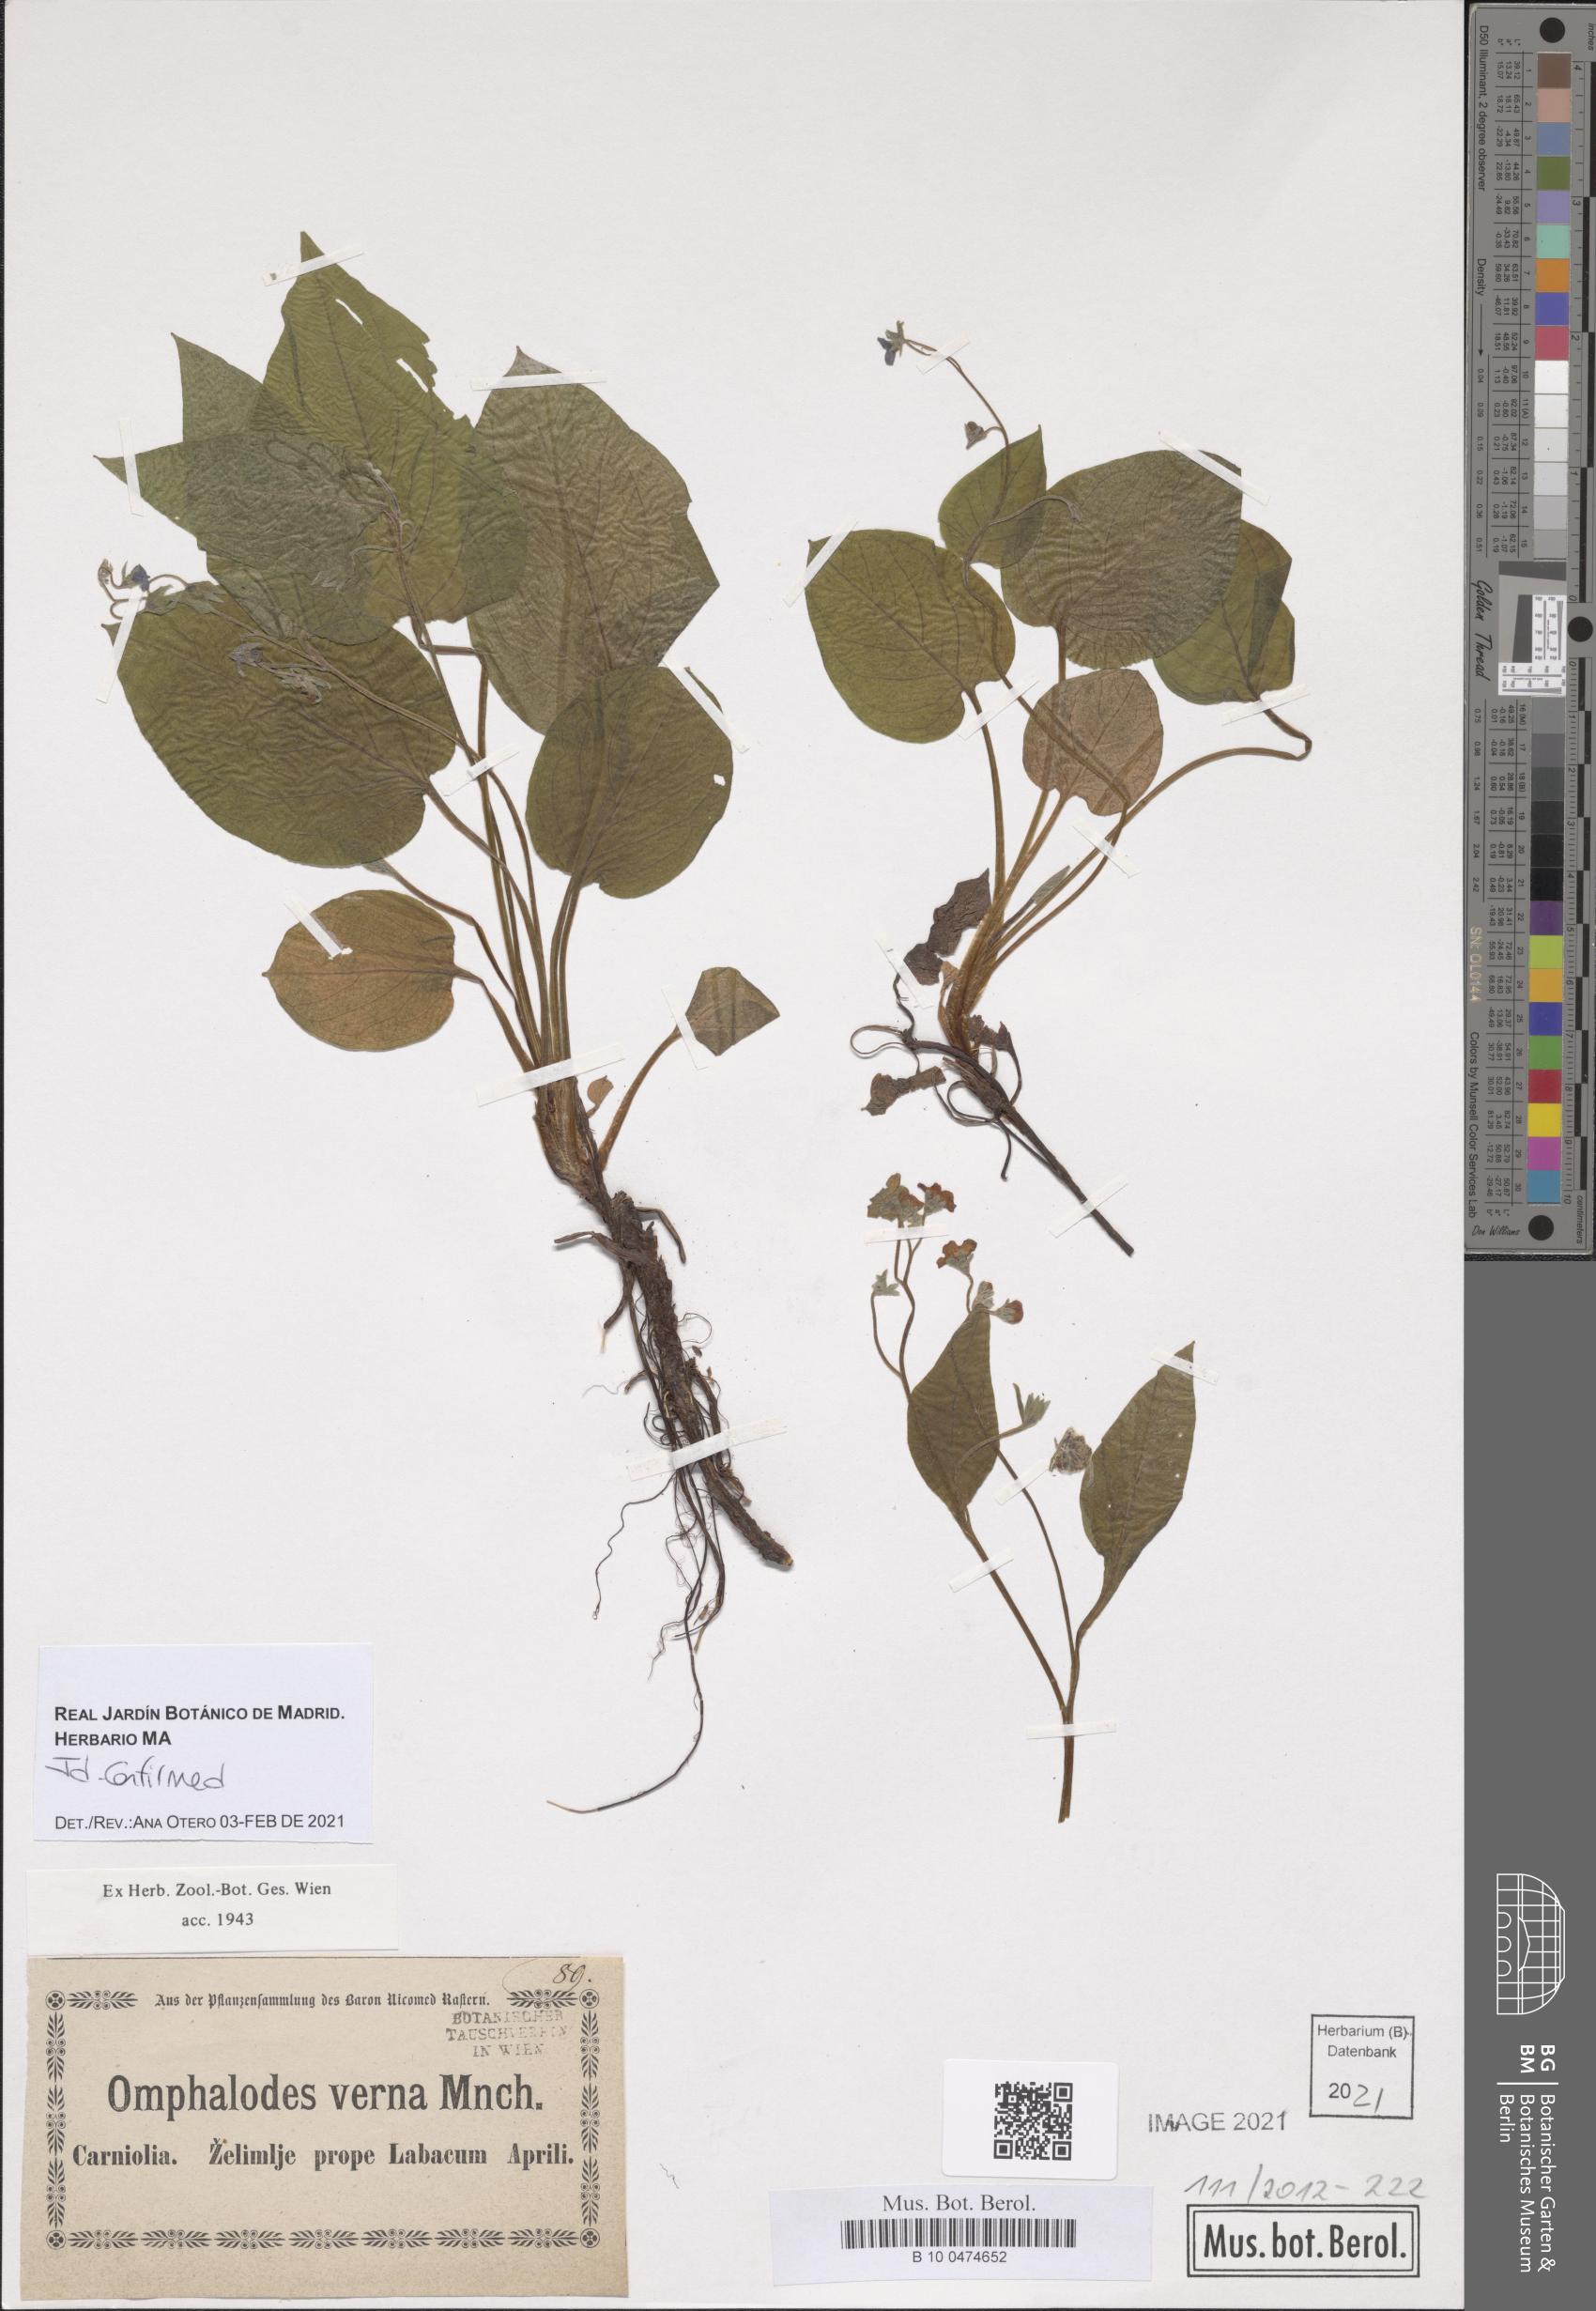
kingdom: Plantae
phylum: Tracheophyta
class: Magnoliopsida
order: Boraginales
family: Boraginaceae
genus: Omphalodes
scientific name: Omphalodes verna
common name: Blue-eyed-mary
